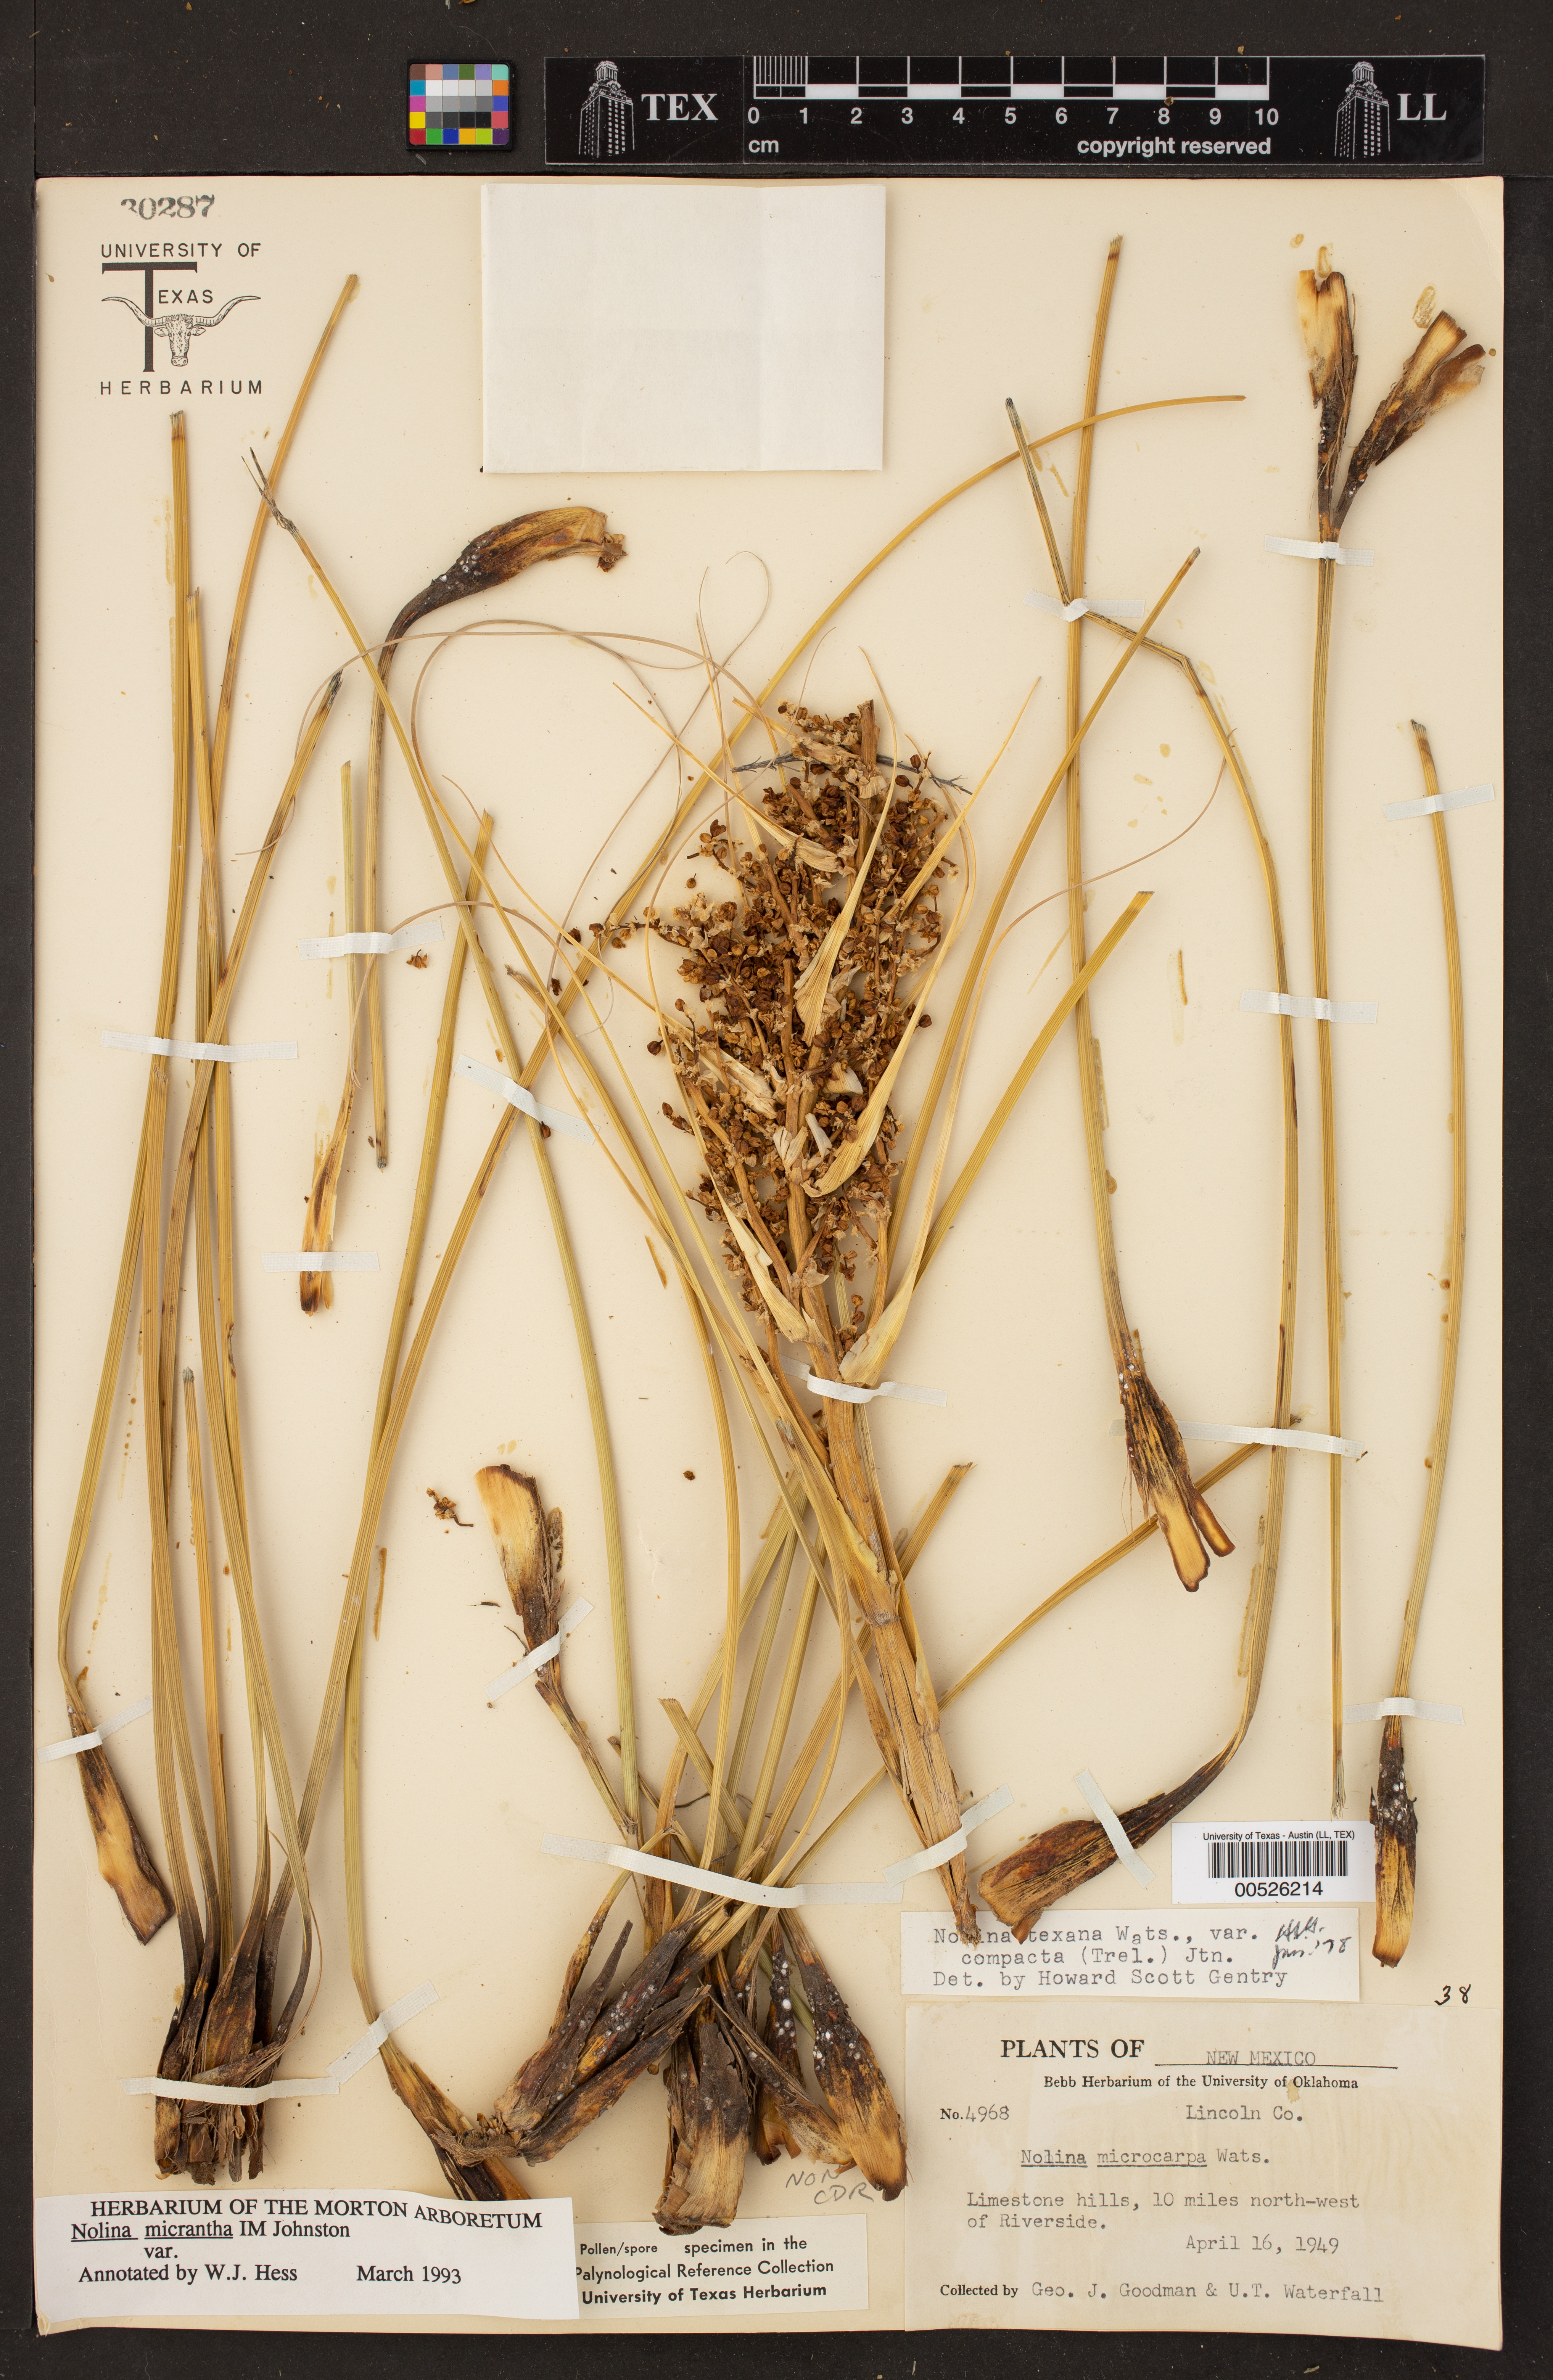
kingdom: Plantae
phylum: Tracheophyta
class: Liliopsida
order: Asparagales
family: Asparagaceae
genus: Nolina
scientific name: Nolina micrantha
